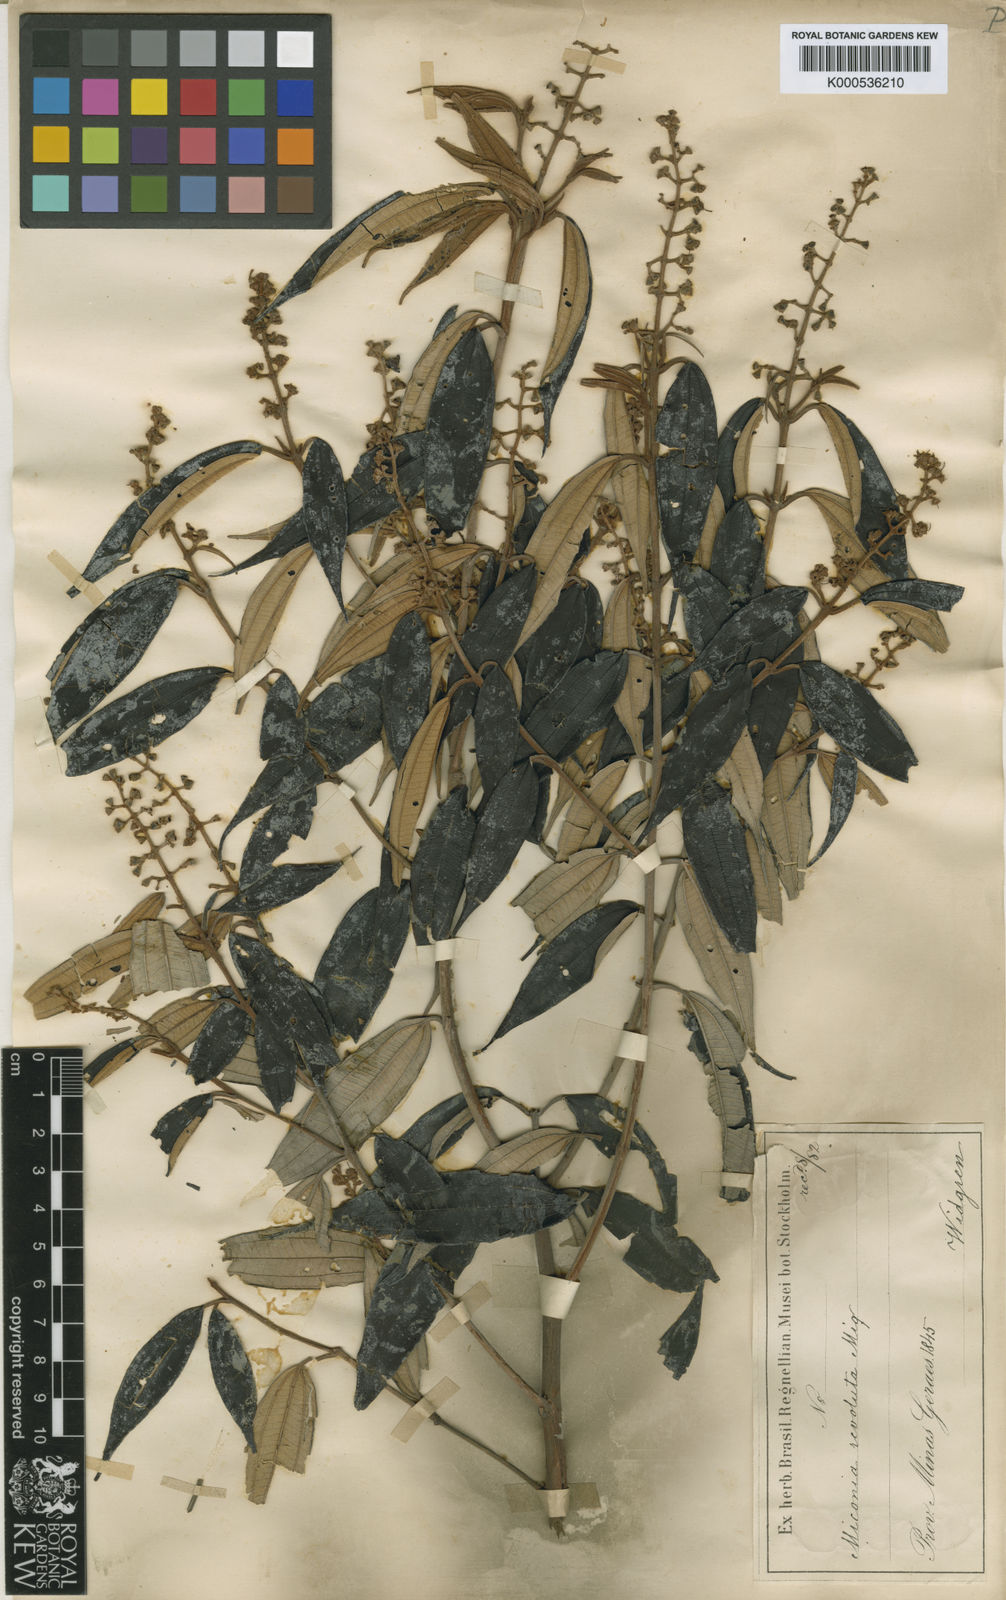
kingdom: Plantae
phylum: Tracheophyta
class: Magnoliopsida
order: Myrtales
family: Melastomataceae
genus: Miconia
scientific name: Miconia cubatanensis
